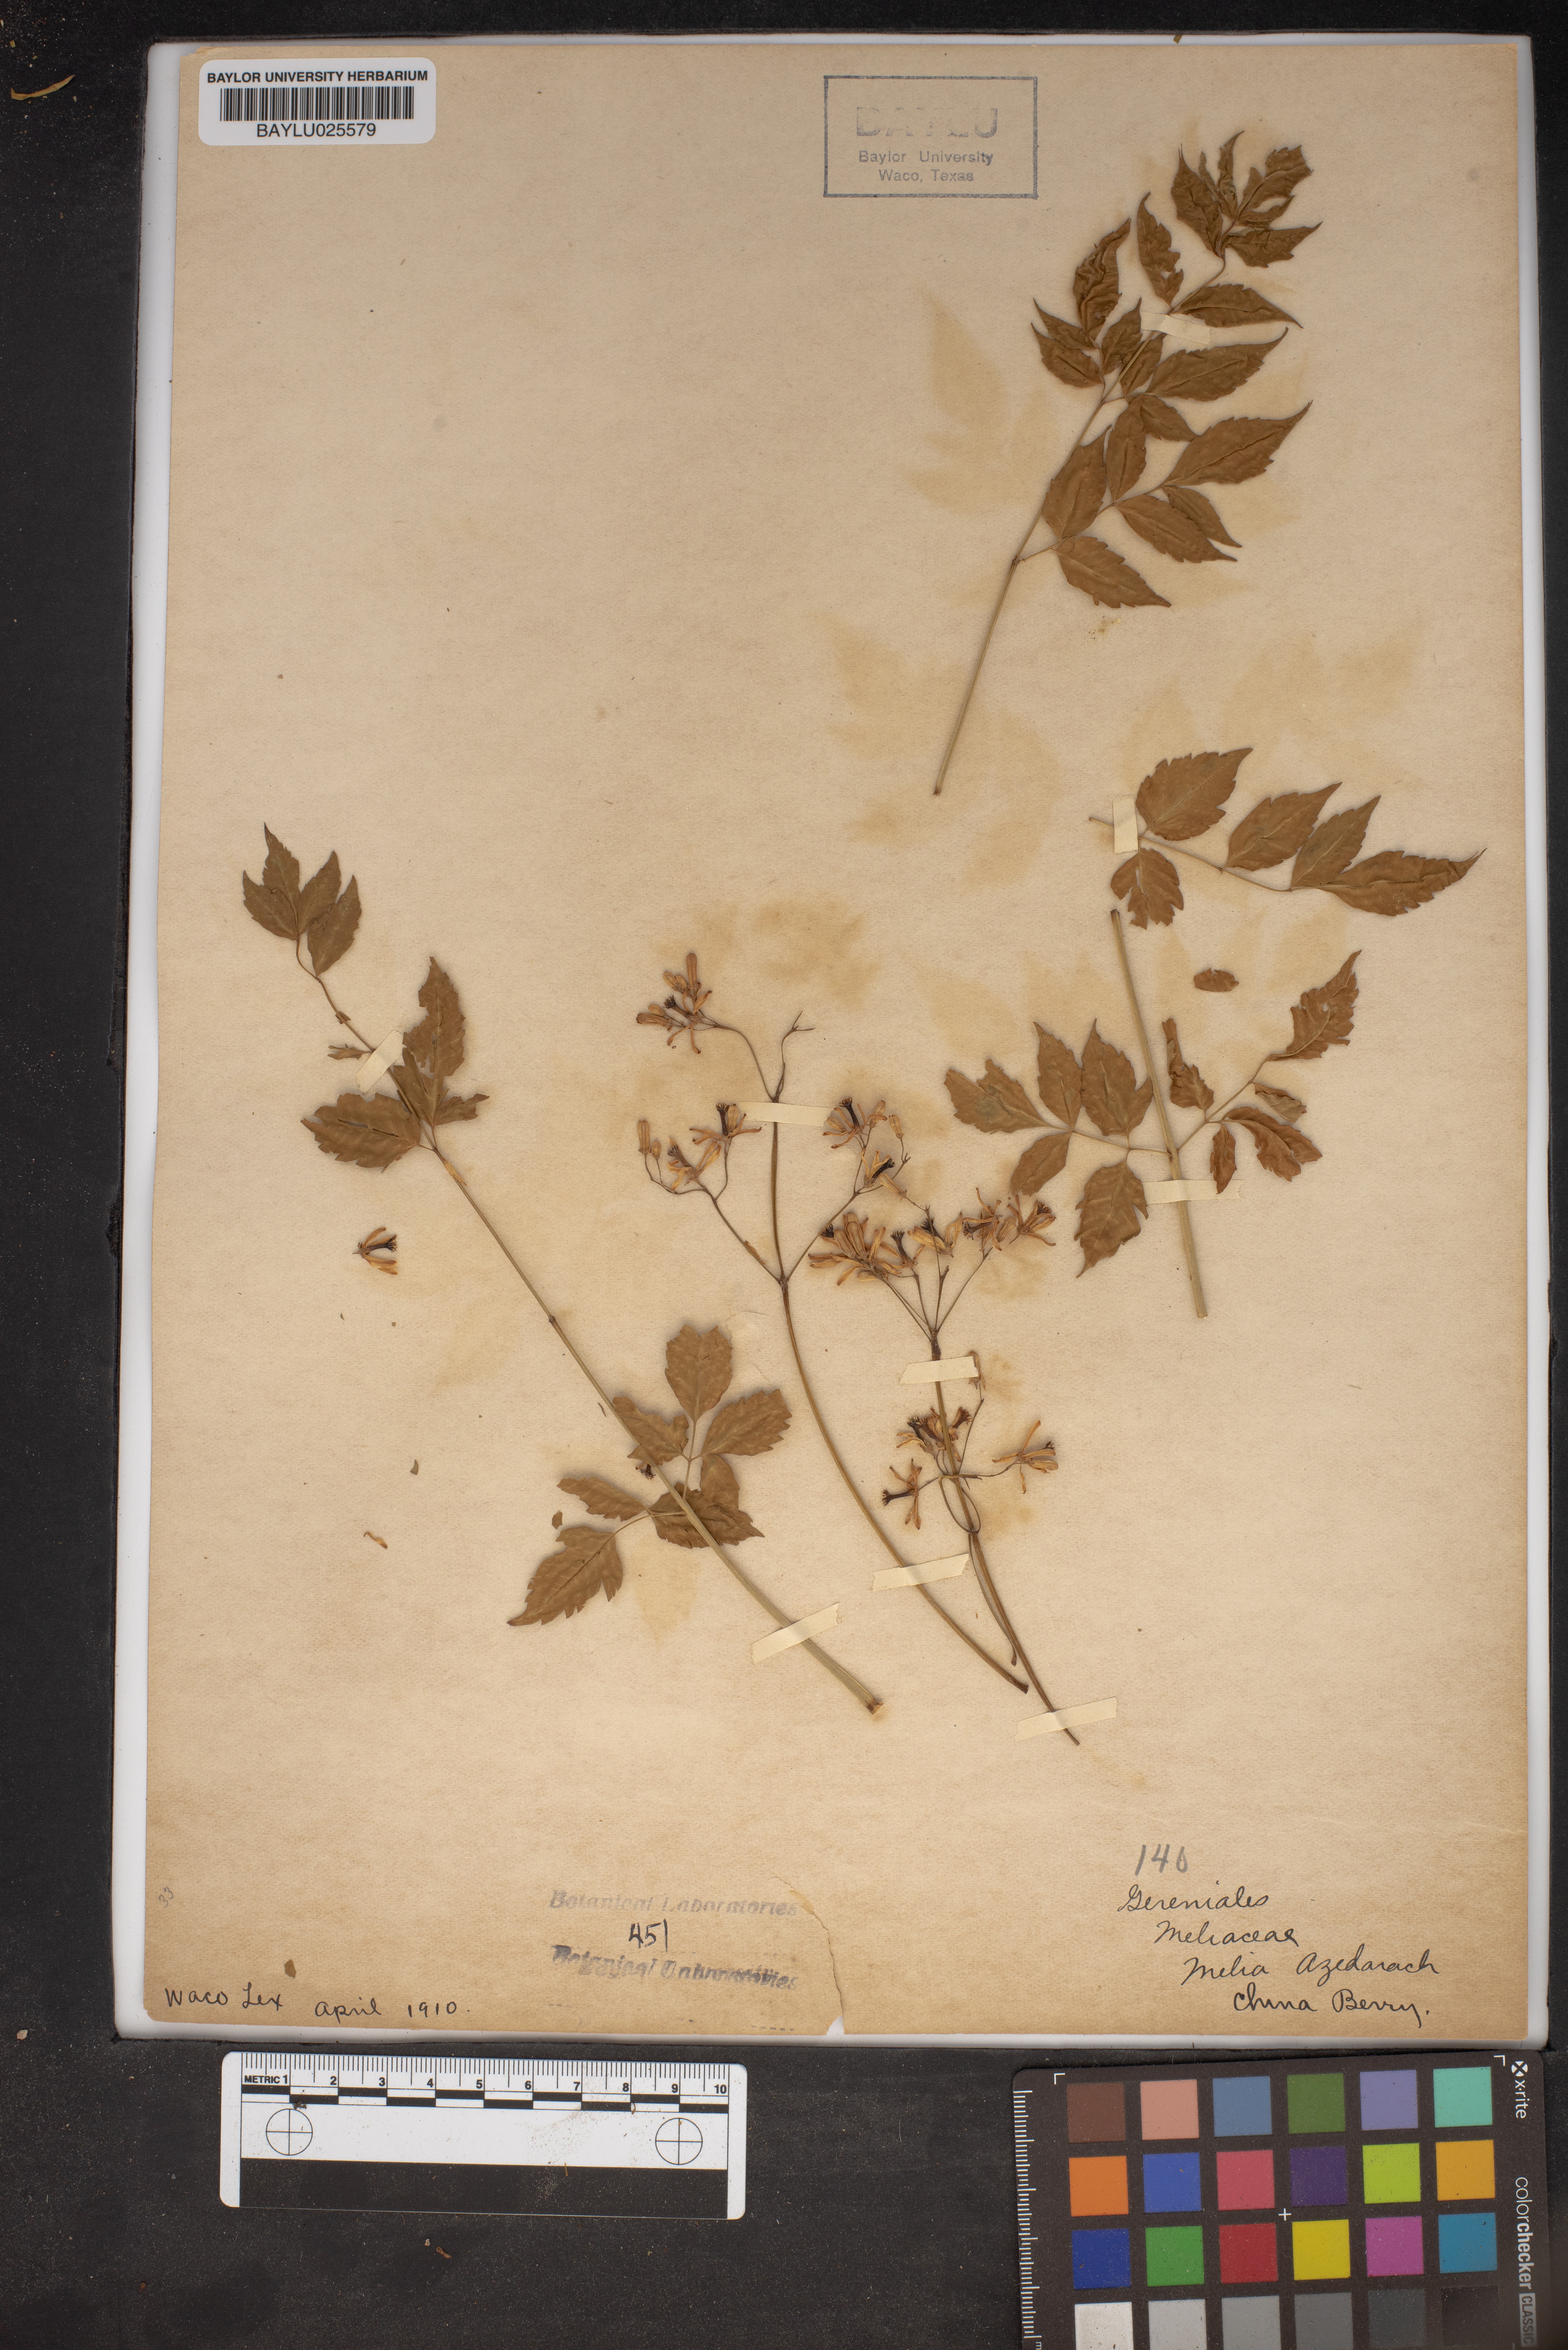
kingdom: Plantae
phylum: Tracheophyta
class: Magnoliopsida
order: Sapindales
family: Meliaceae
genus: Melia
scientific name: Melia azedarach
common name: Chinaberrytree
